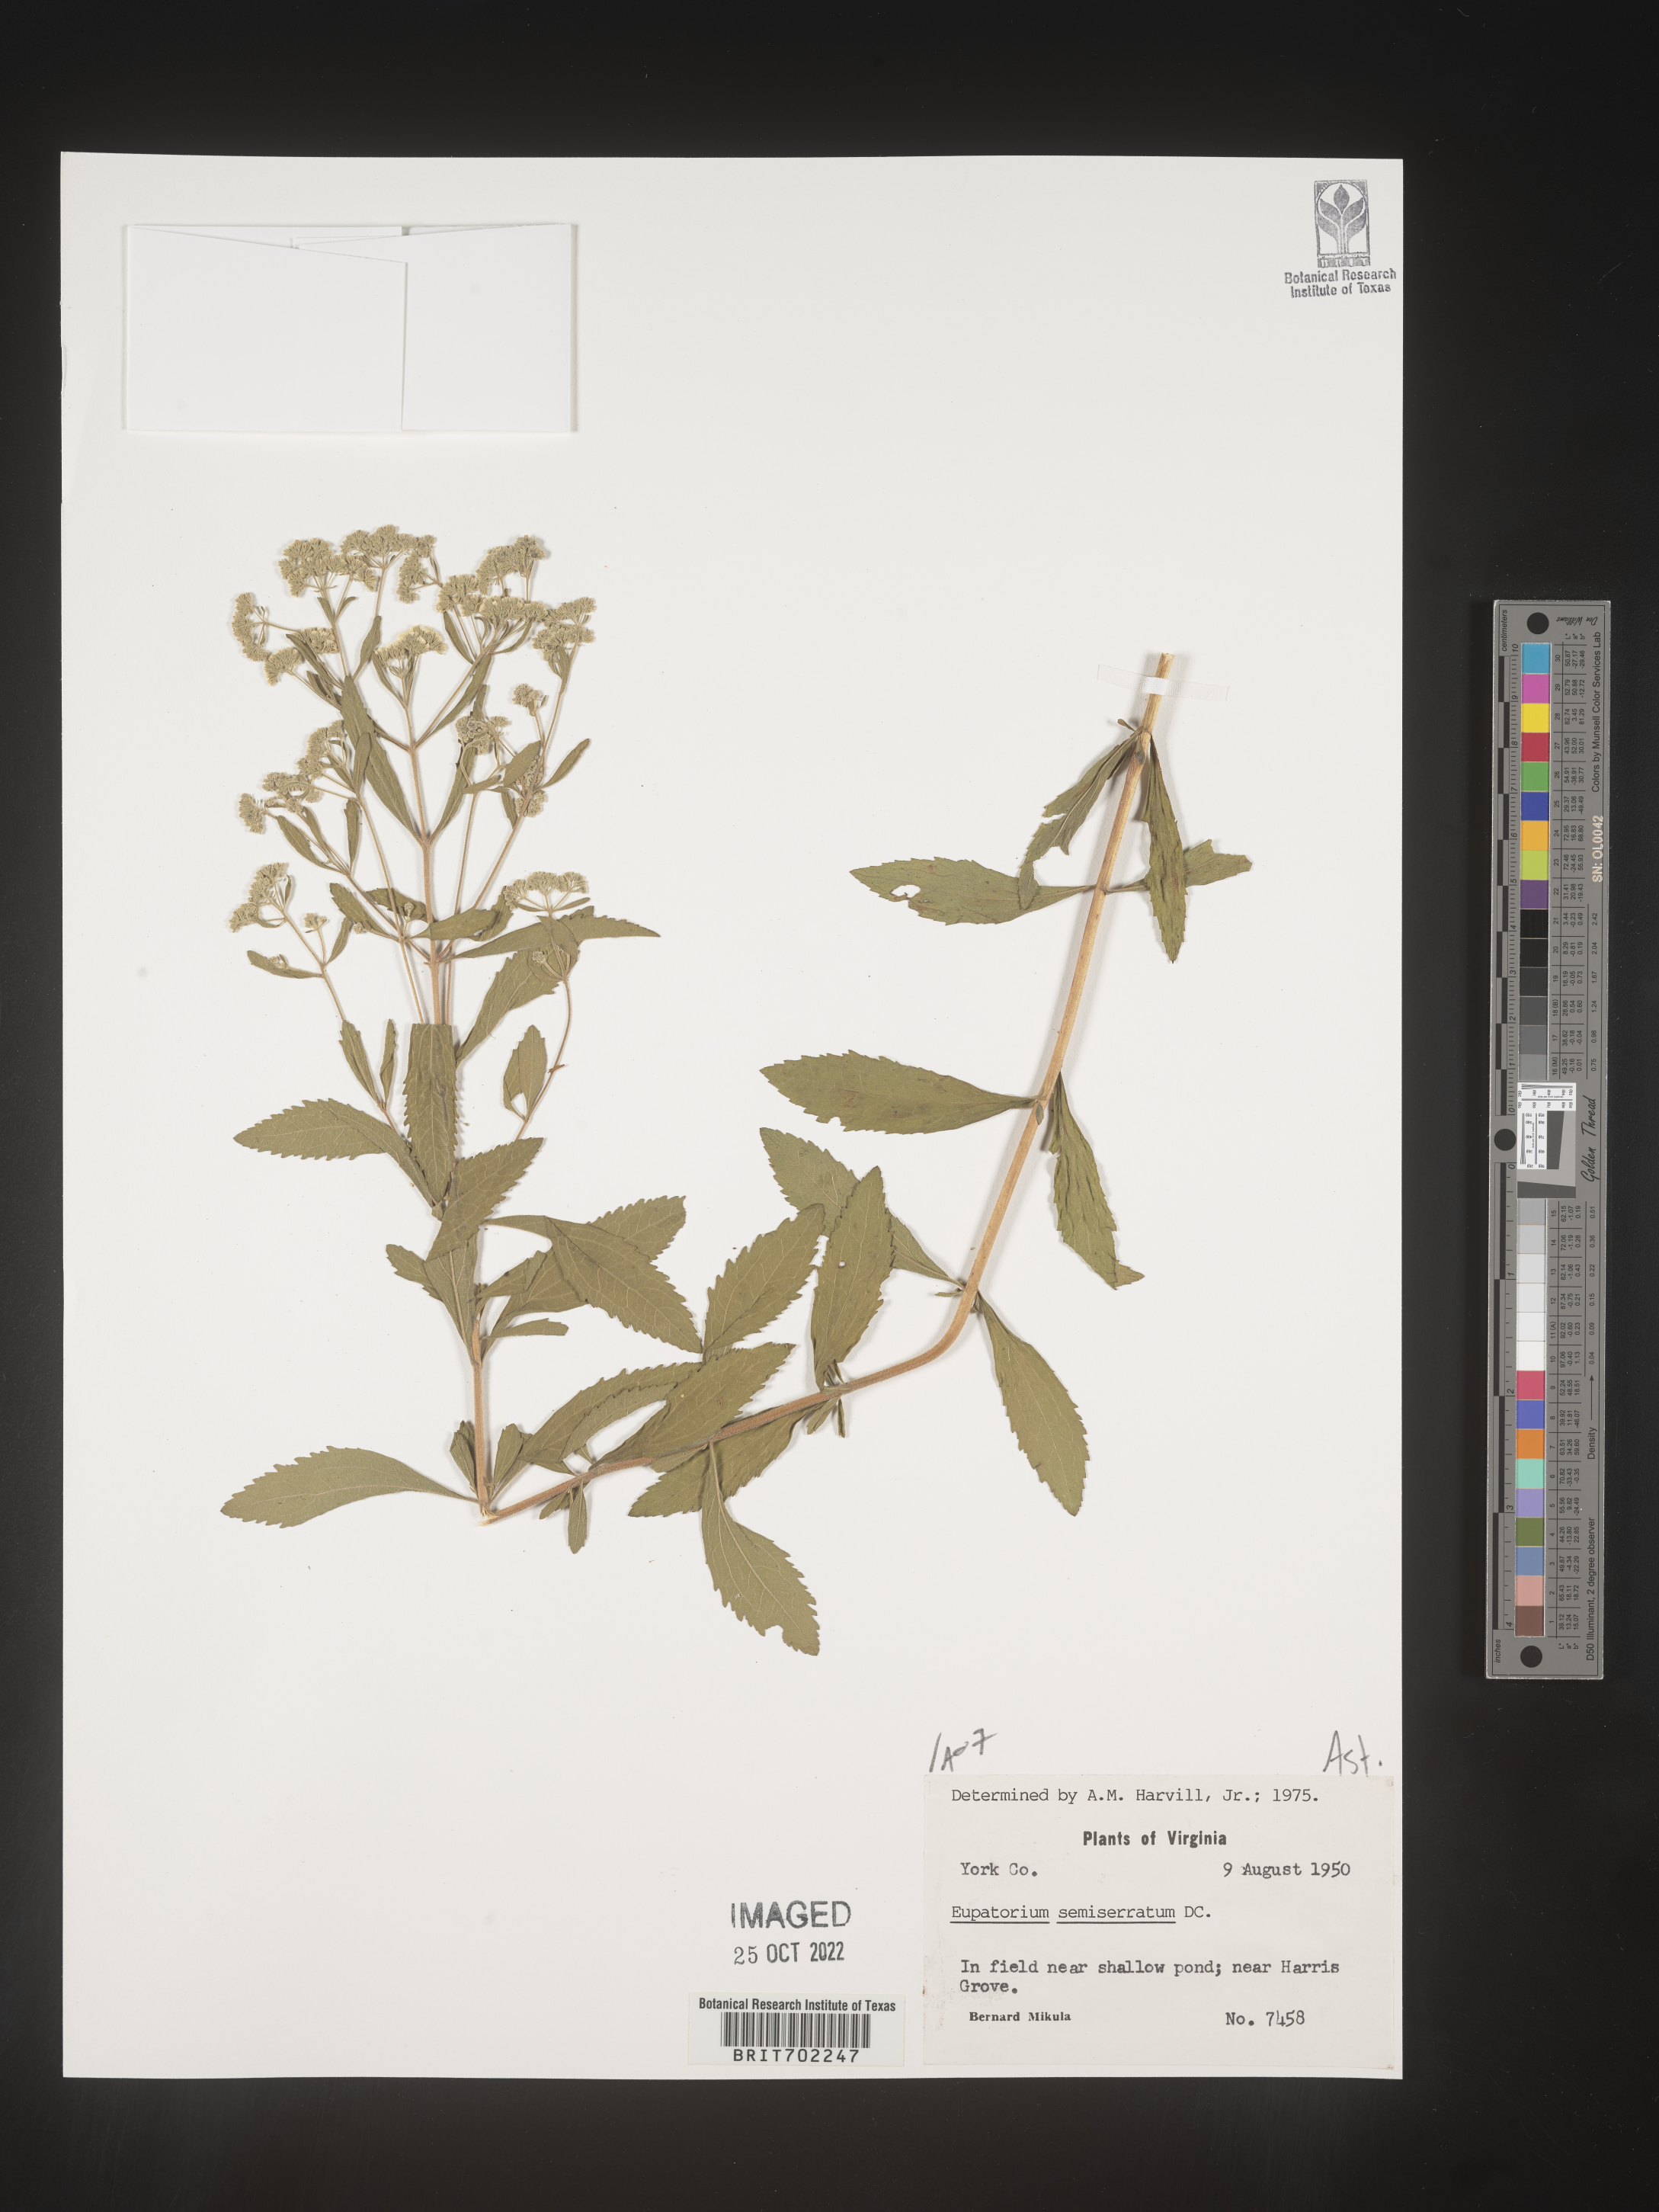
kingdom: Plantae
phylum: Tracheophyta
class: Magnoliopsida
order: Asterales
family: Asteraceae
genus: Eupatorium
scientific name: Eupatorium semiserratum
